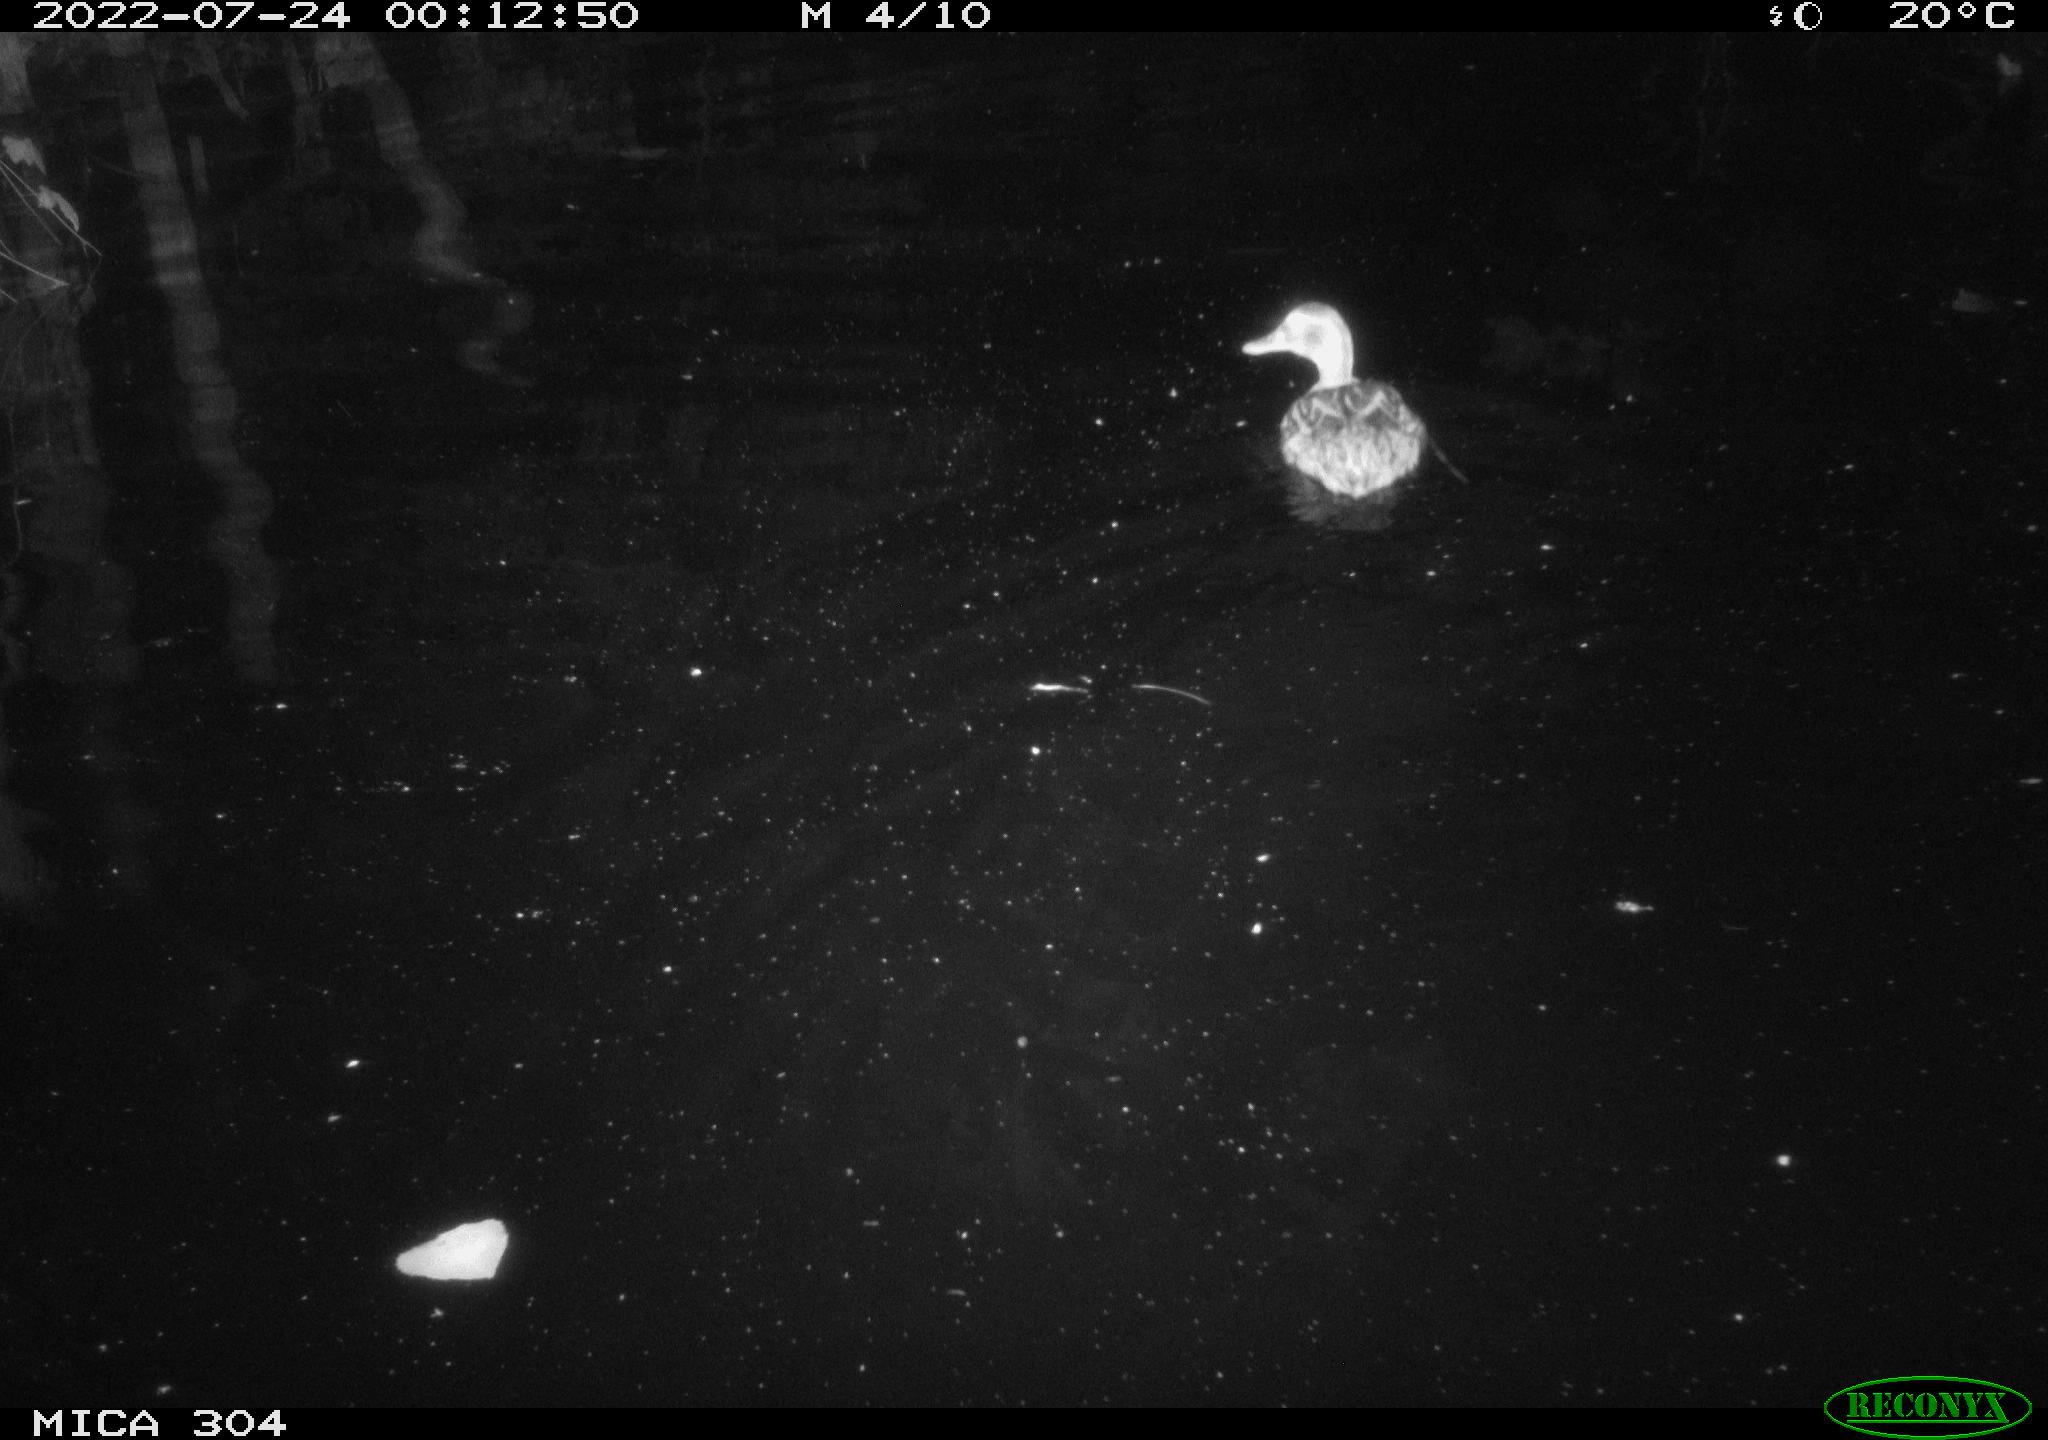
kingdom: Animalia
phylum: Chordata
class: Aves
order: Anseriformes
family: Anatidae
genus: Anas
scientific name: Anas platyrhynchos
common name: Mallard
